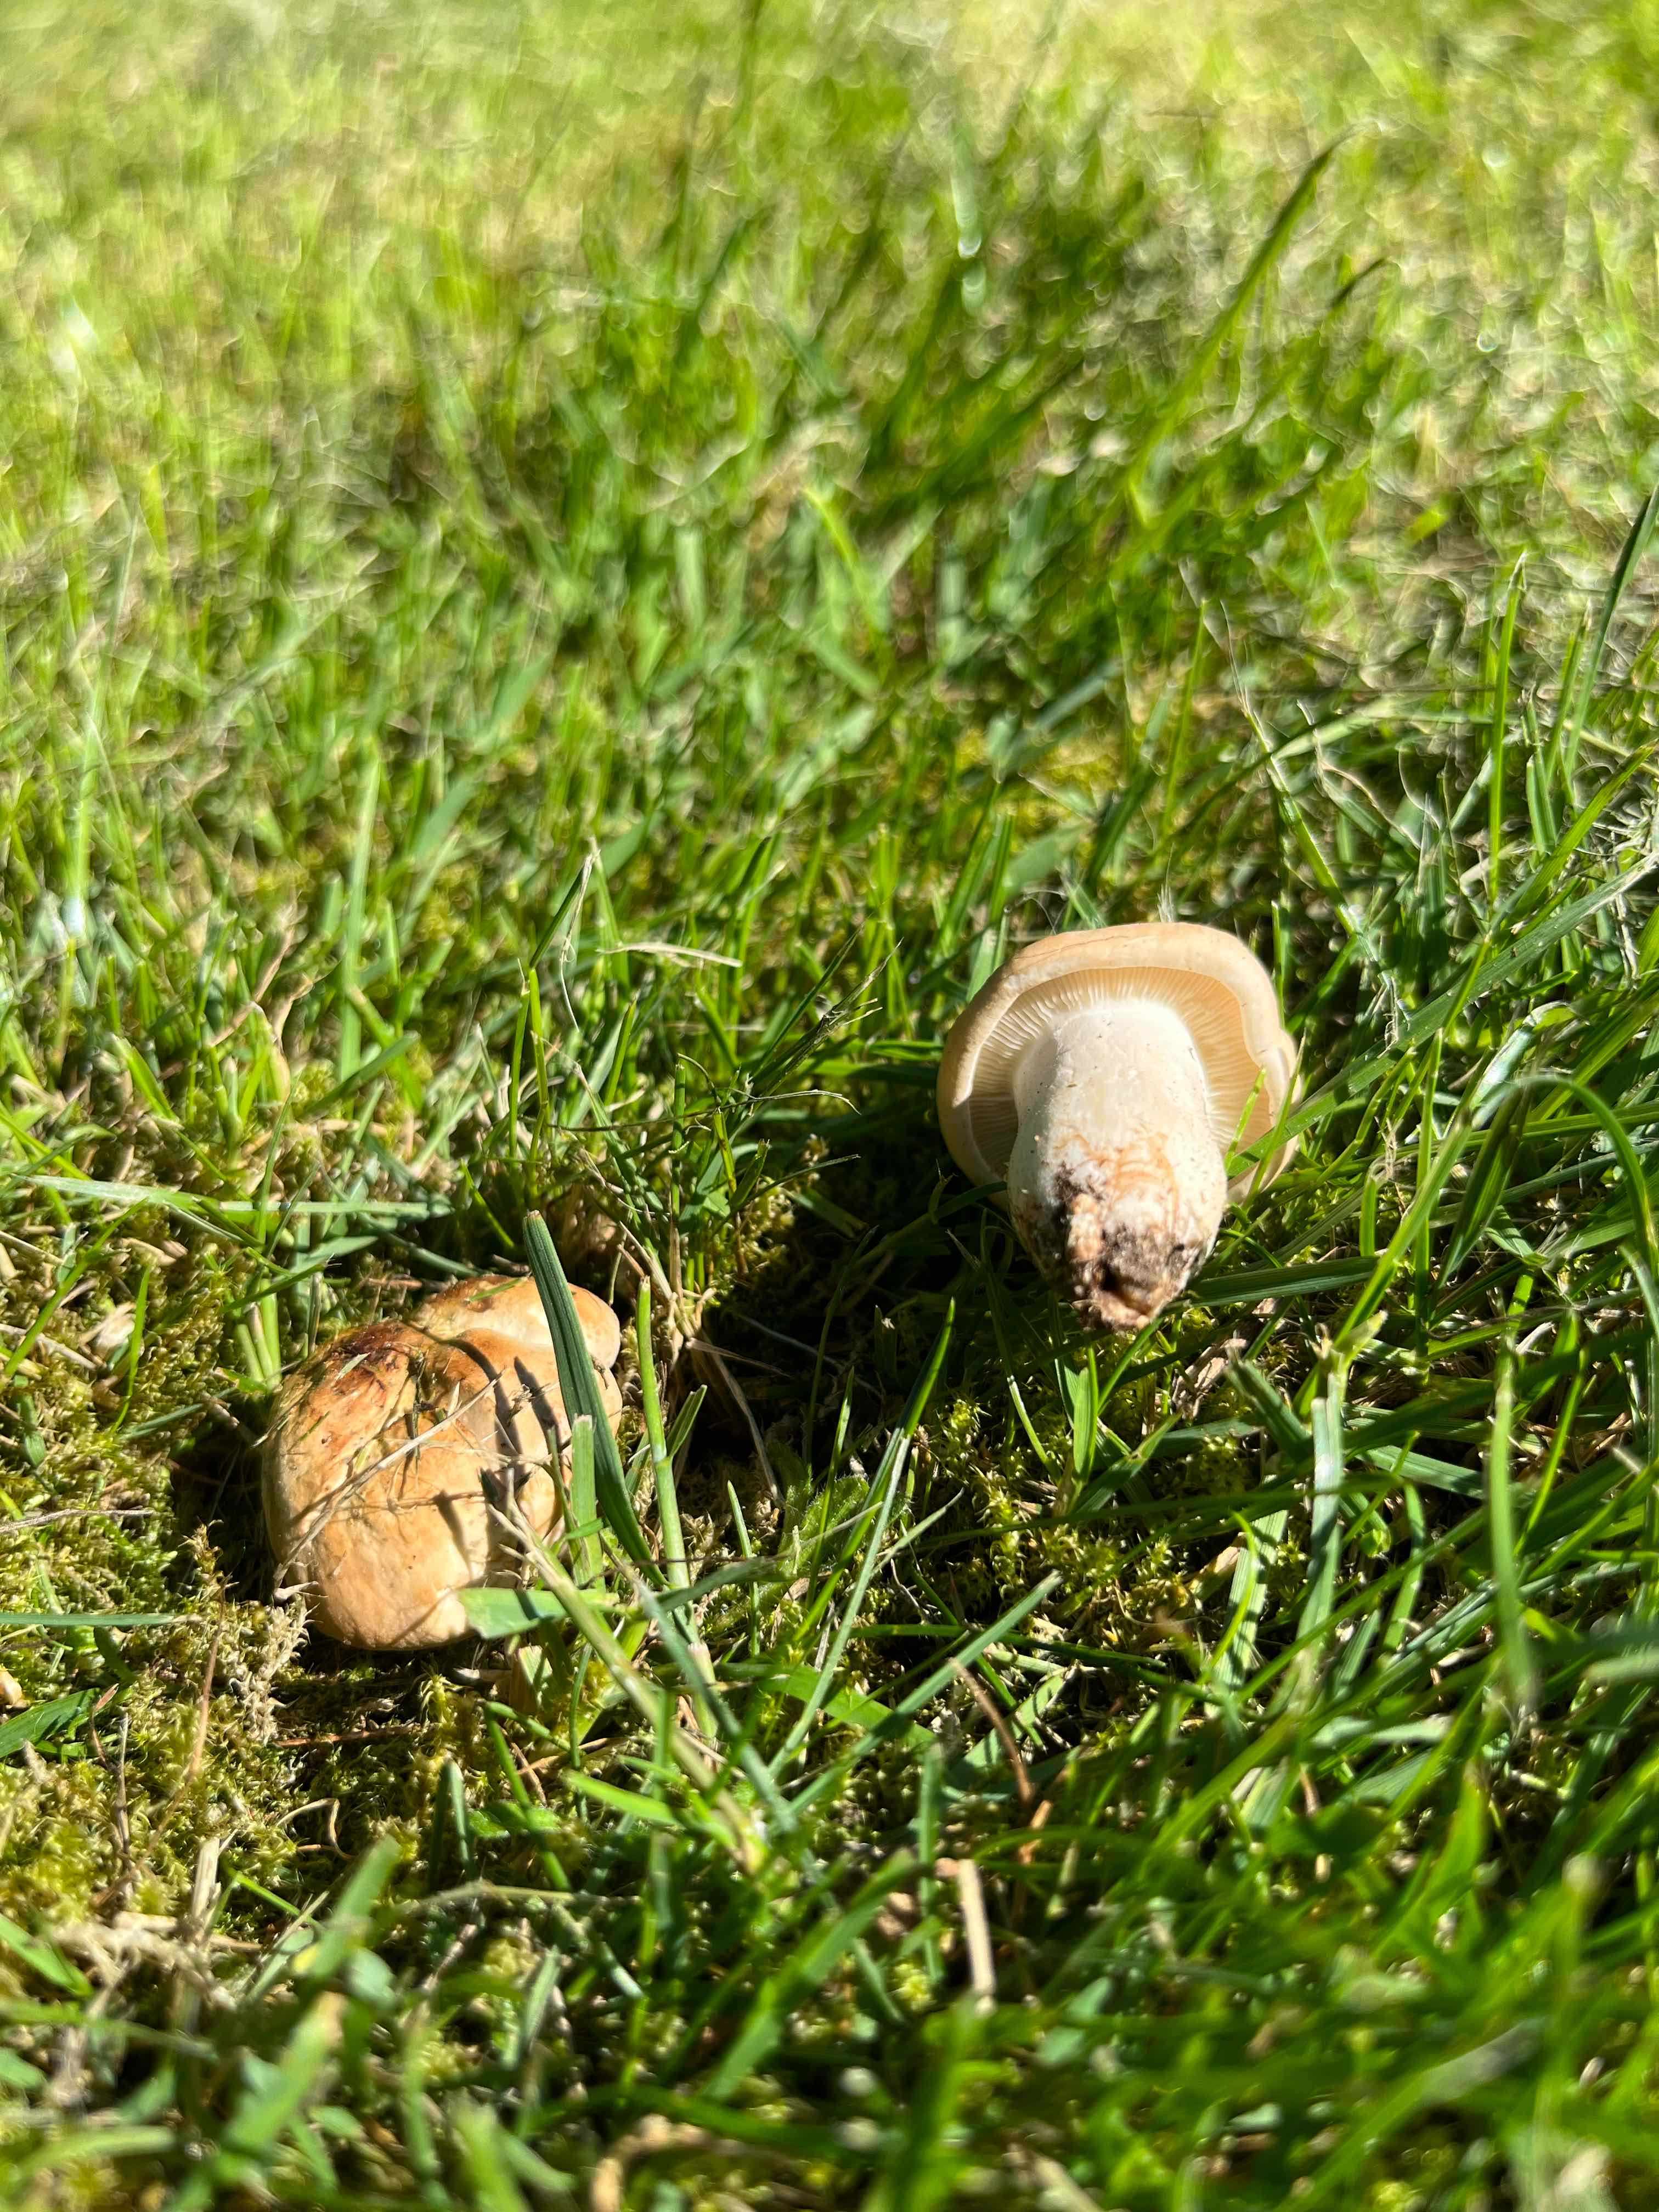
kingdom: Fungi
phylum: Basidiomycota
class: Agaricomycetes
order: Agaricales
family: Lyophyllaceae
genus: Calocybe
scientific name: Calocybe gambosa
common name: vårmusseron
